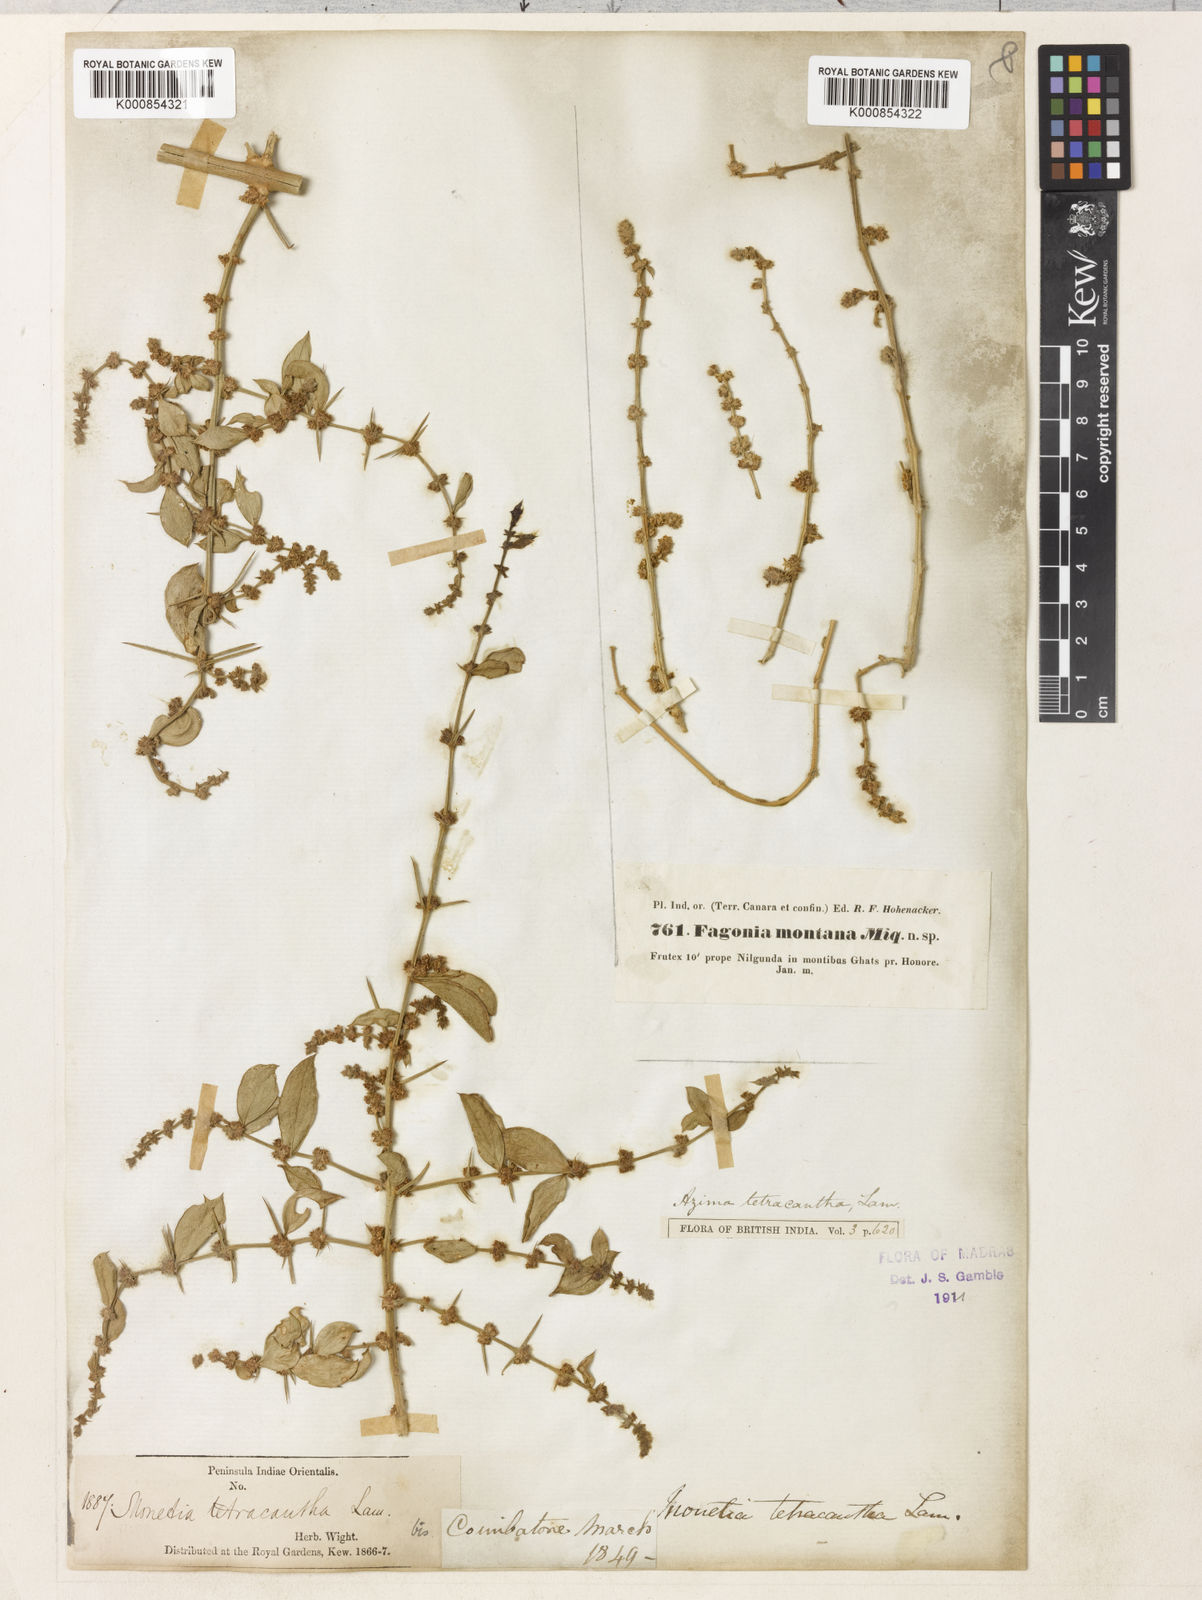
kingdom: Plantae
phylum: Tracheophyta
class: Magnoliopsida
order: Brassicales
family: Salvadoraceae
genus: Azima
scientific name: Azima tetracantha
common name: Needle bush
